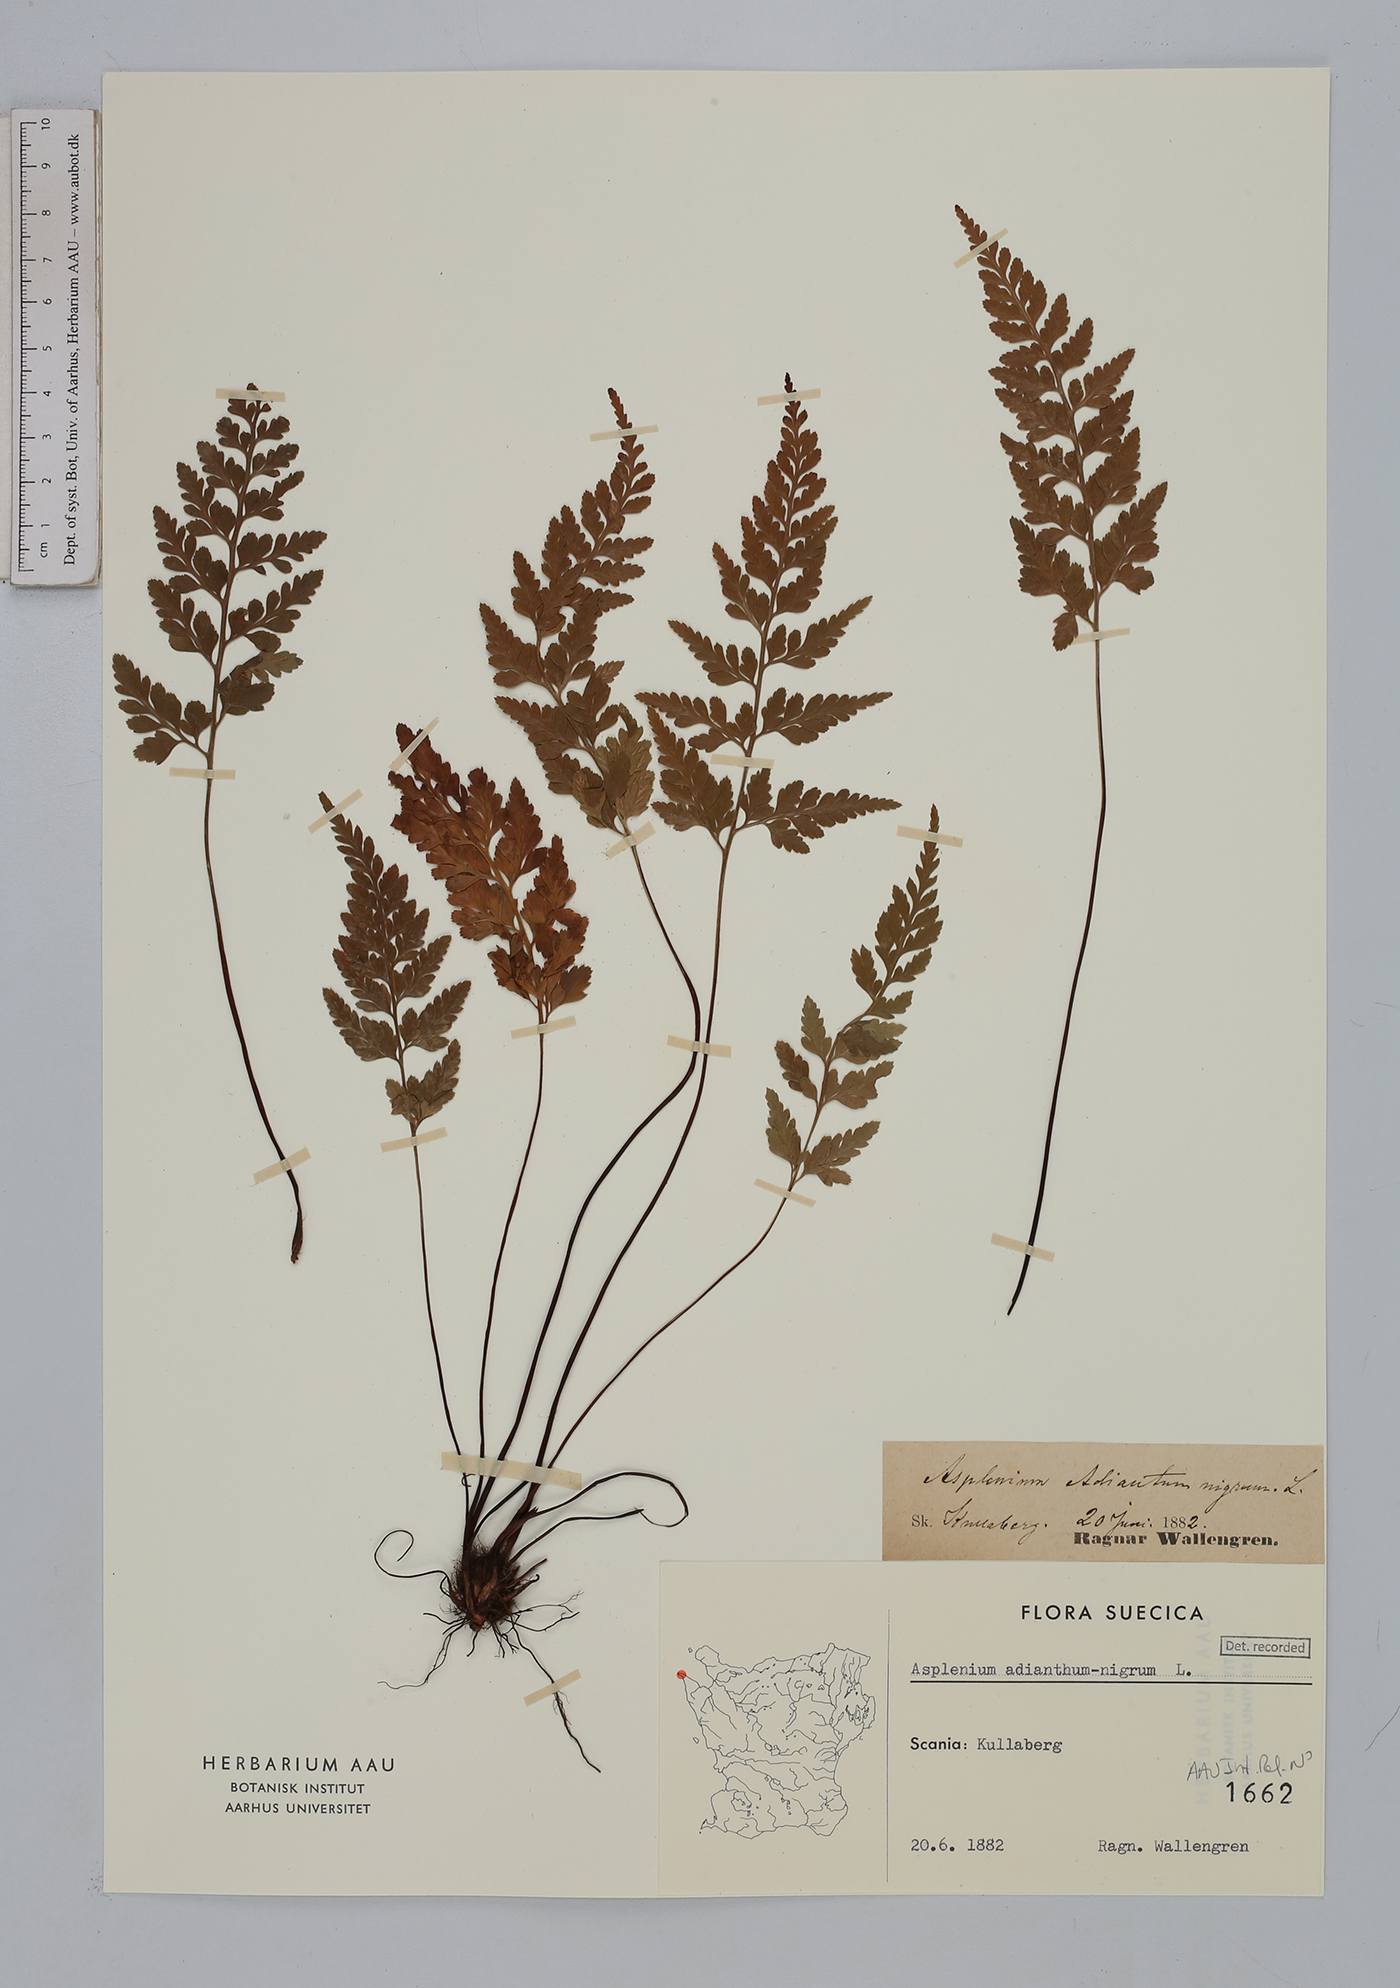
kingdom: Plantae
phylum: Tracheophyta
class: Polypodiopsida
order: Polypodiales
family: Aspleniaceae
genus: Asplenium
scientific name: Asplenium adiantum-nigrum
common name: Black spleenwort
